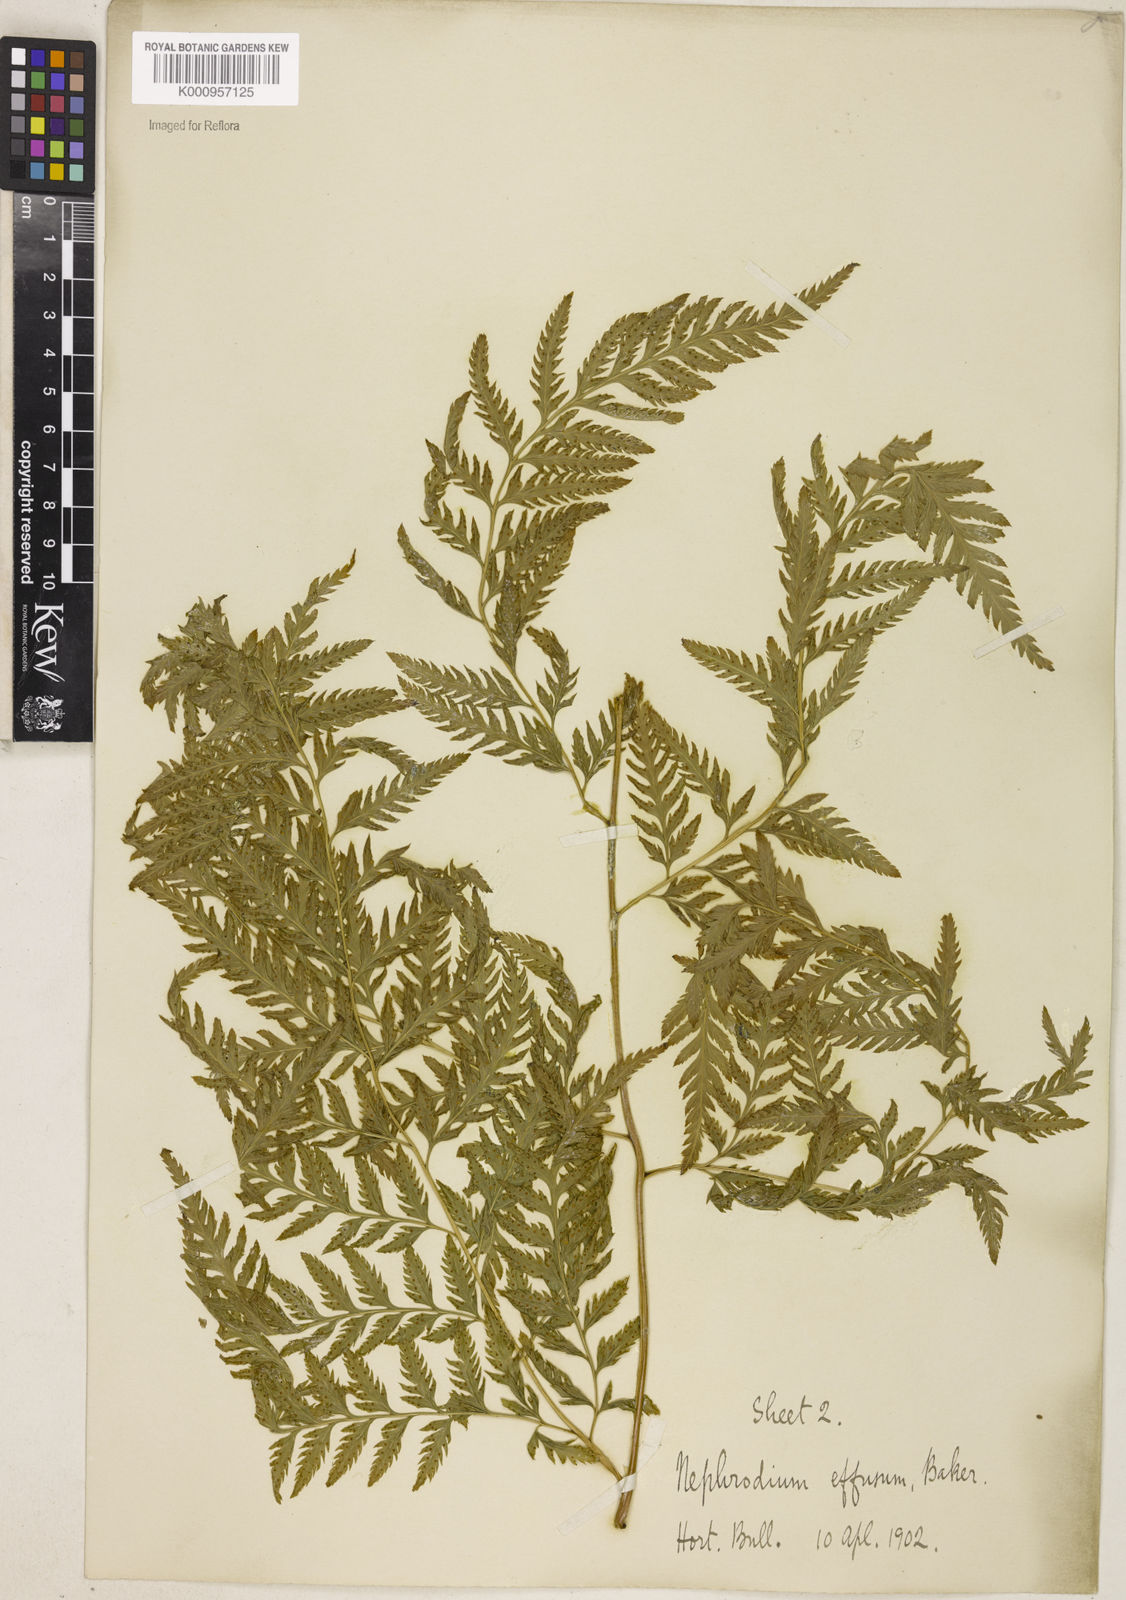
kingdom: Plantae
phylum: Tracheophyta
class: Polypodiopsida
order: Polypodiales
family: Dryopteridaceae
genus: Parapolystichum
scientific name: Parapolystichum effusum
